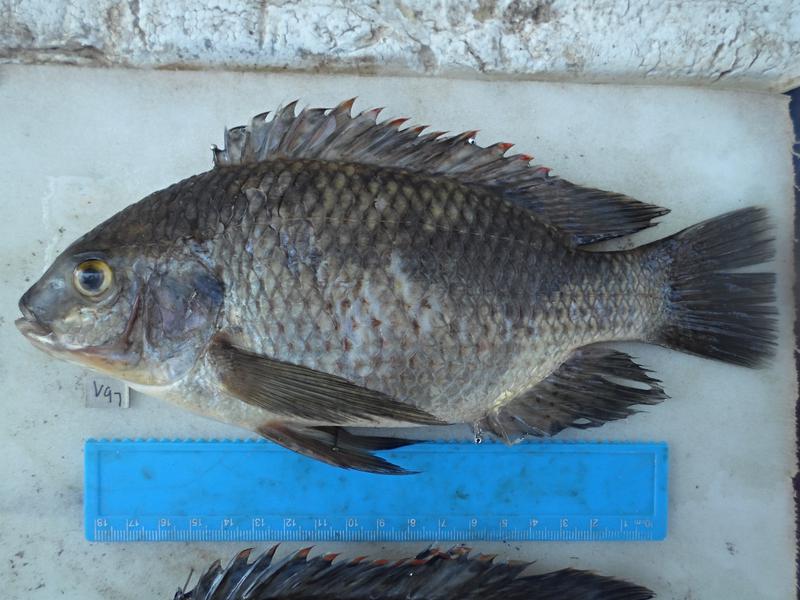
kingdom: Animalia
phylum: Chordata
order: Perciformes
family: Cichlidae
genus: Oreochromis
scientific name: Oreochromis variabilis
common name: Victoria tilapia
